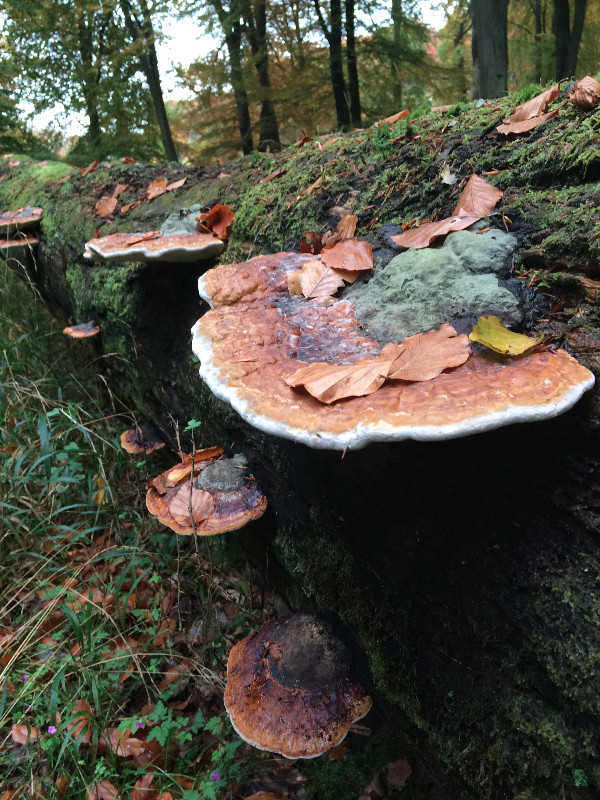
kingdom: Fungi
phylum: Basidiomycota
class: Agaricomycetes
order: Polyporales
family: Fomitopsidaceae
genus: Fomitopsis
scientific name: Fomitopsis pinicola
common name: randbæltet hovporesvamp
